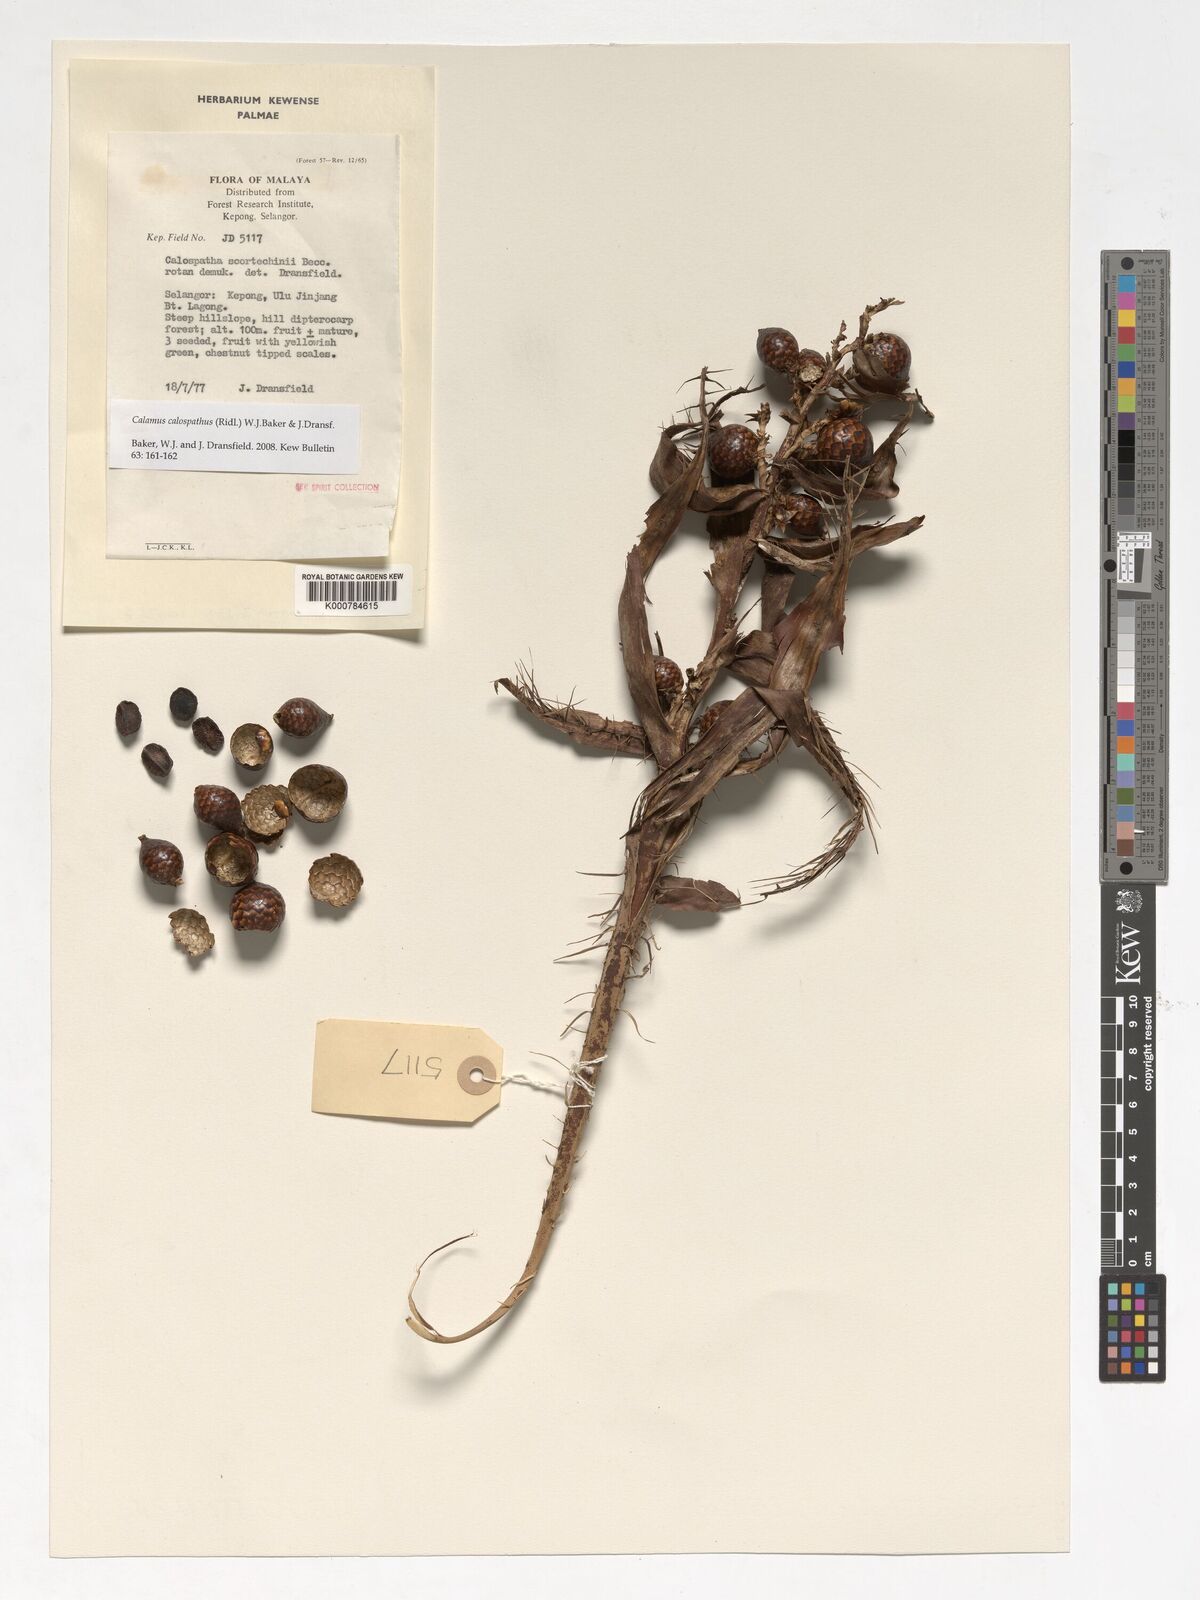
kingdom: Plantae
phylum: Tracheophyta
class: Liliopsida
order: Arecales
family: Arecaceae
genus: Calamus
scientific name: Calamus calospathus
